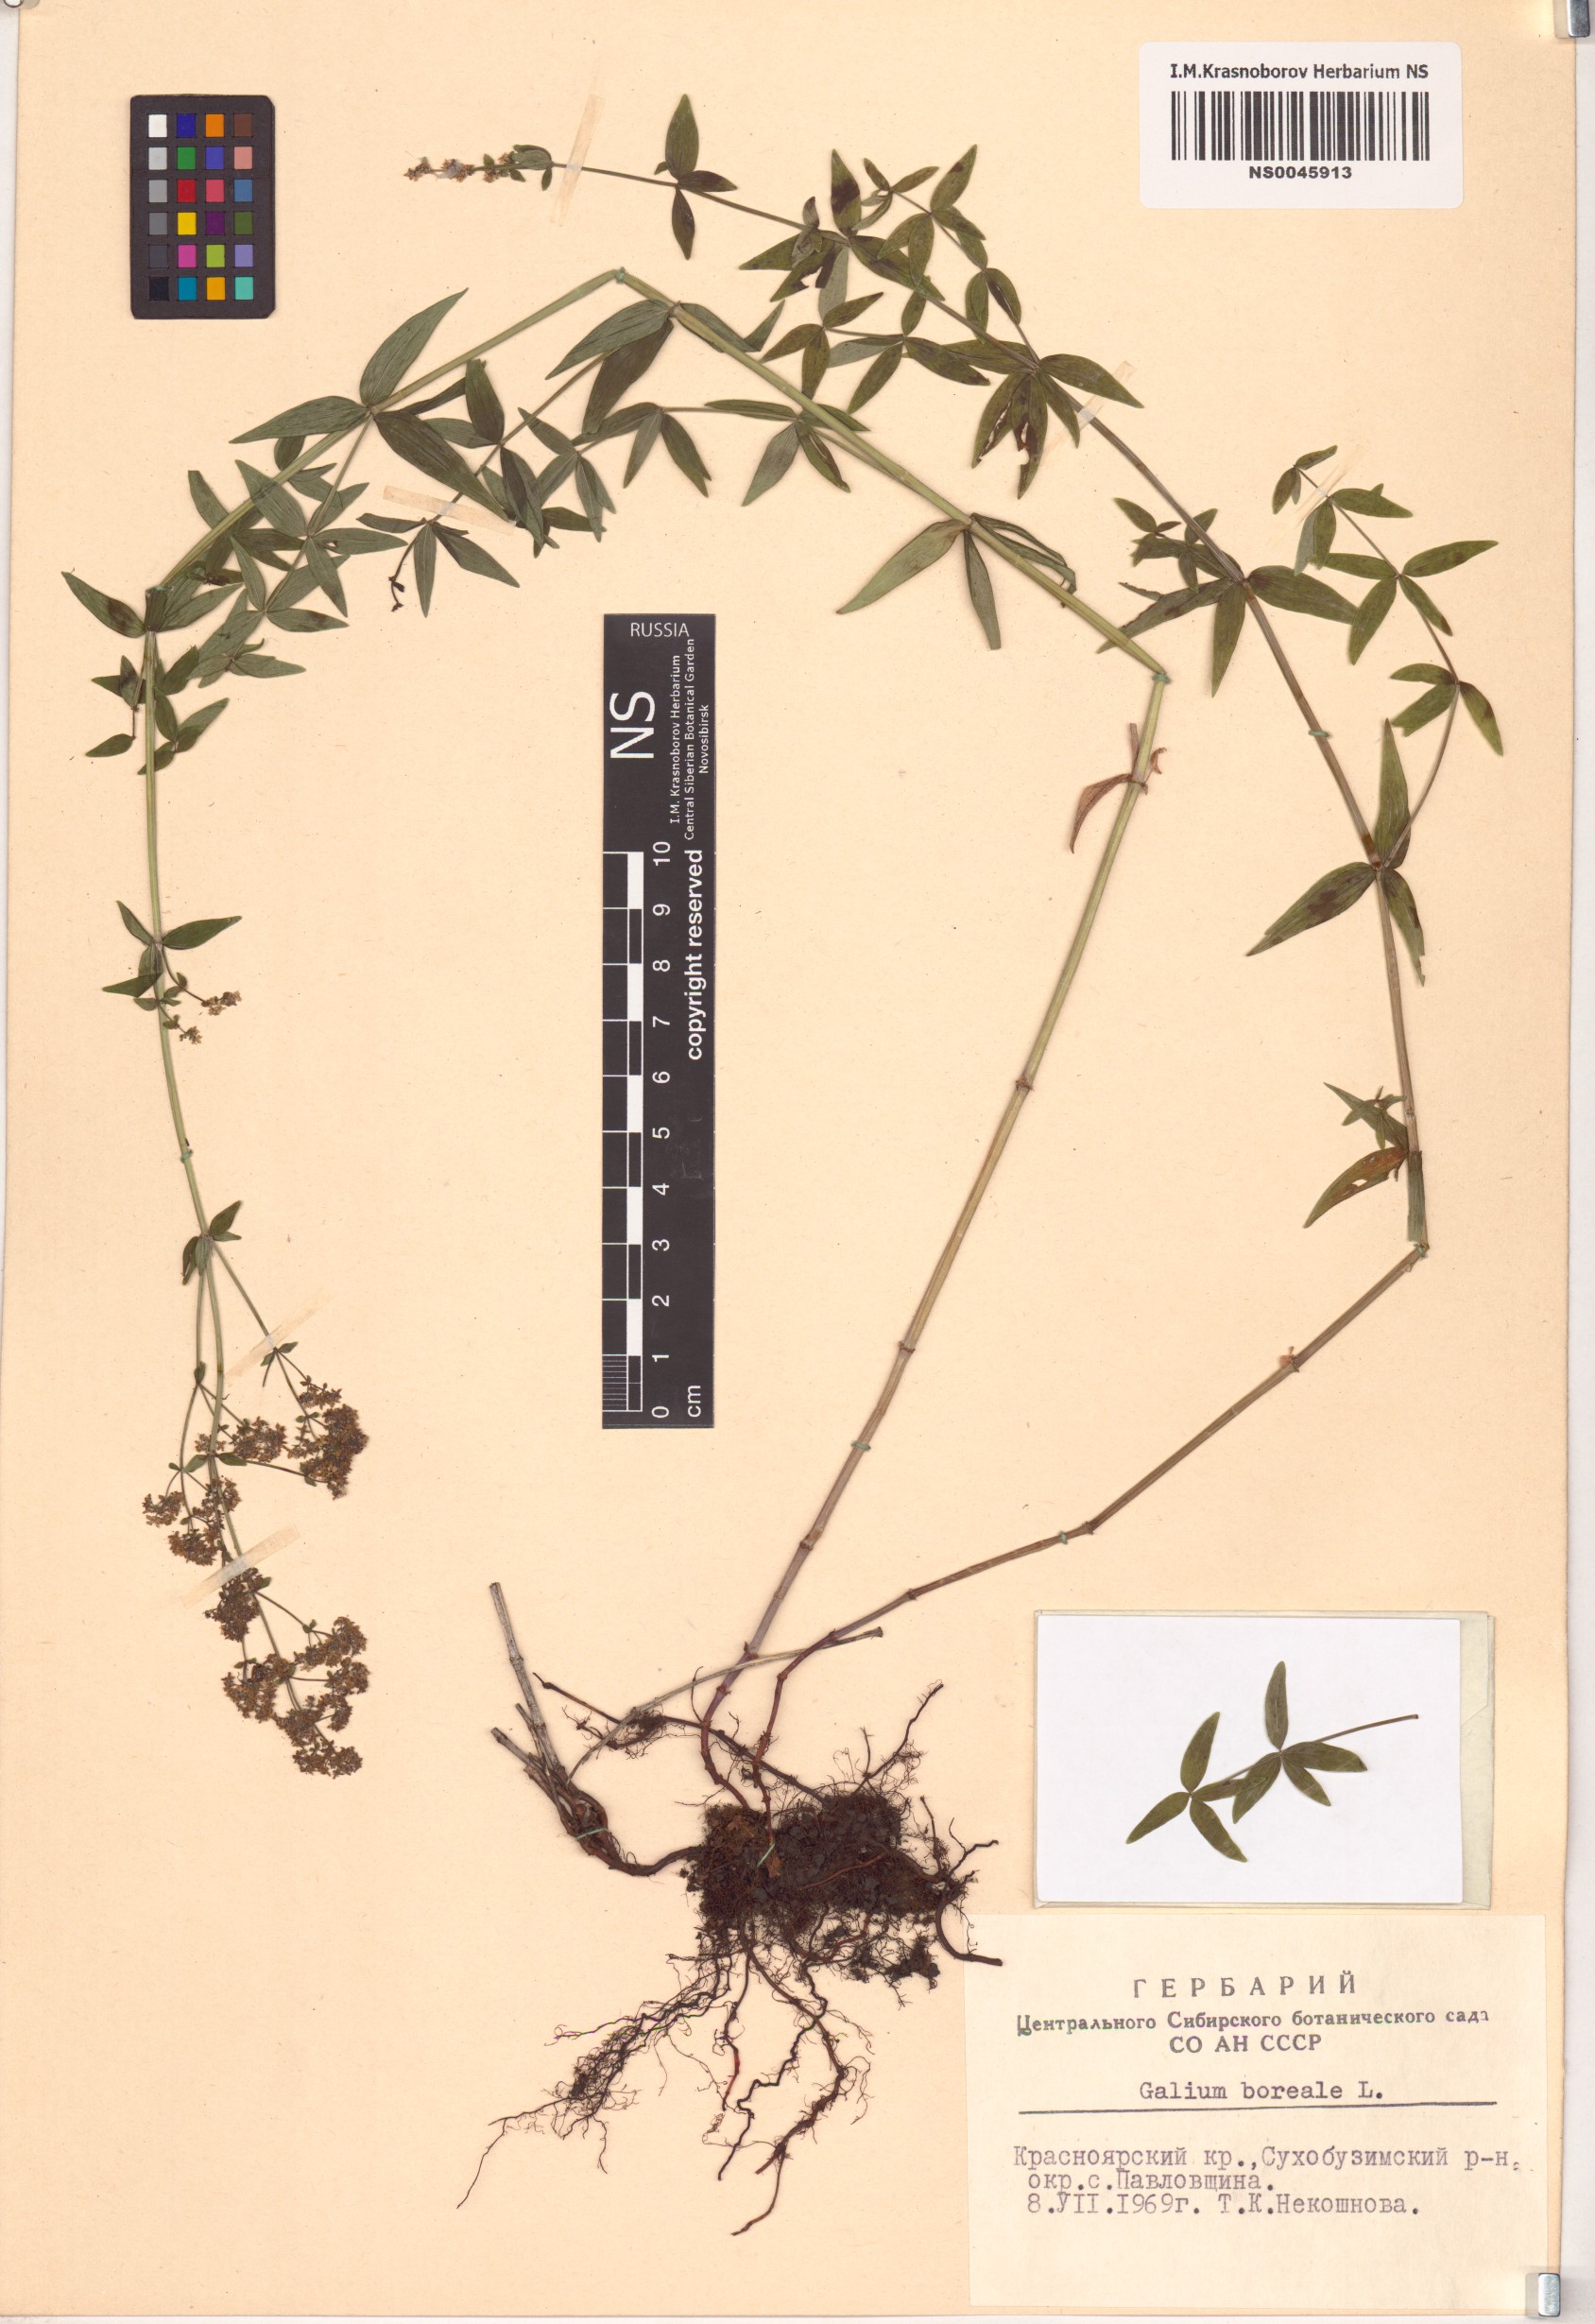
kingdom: Plantae
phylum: Tracheophyta
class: Magnoliopsida
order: Gentianales
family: Rubiaceae
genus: Galium
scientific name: Galium boreale
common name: Northern bedstraw
